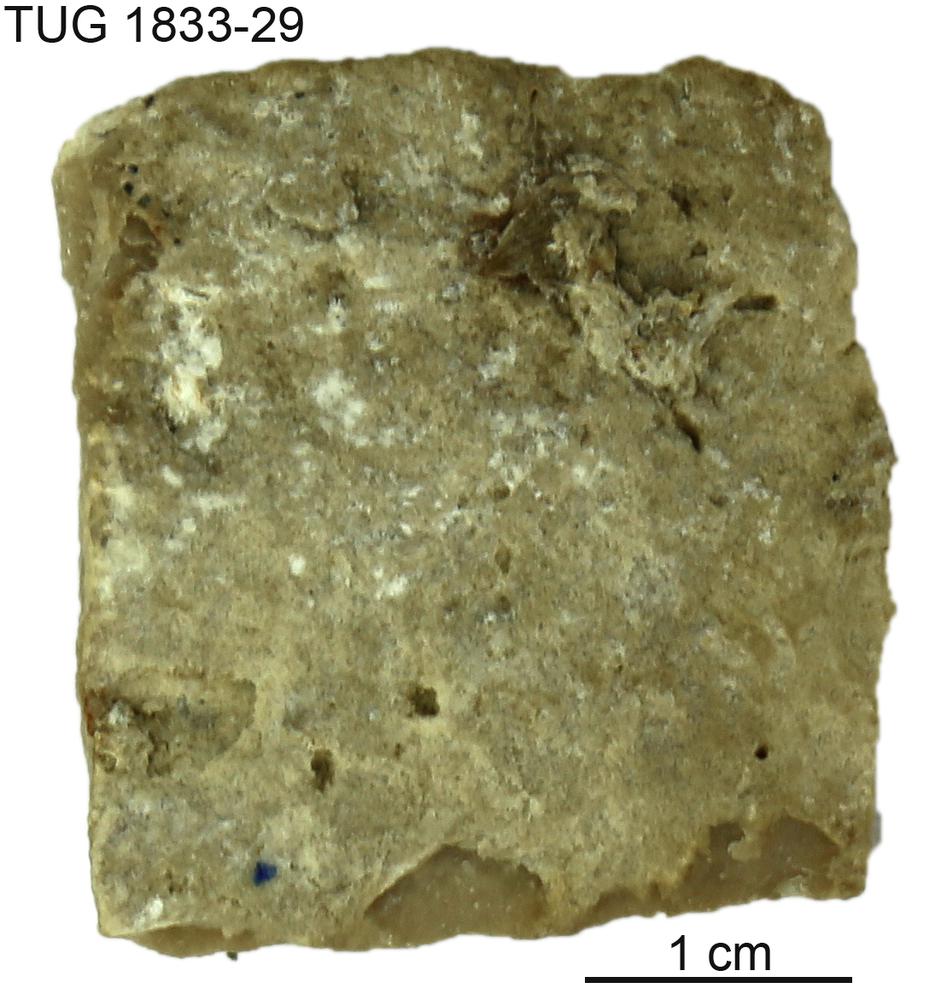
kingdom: Animalia
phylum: Porifera
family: Stromatoporidae
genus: Stromatopora
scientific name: Stromatopora
